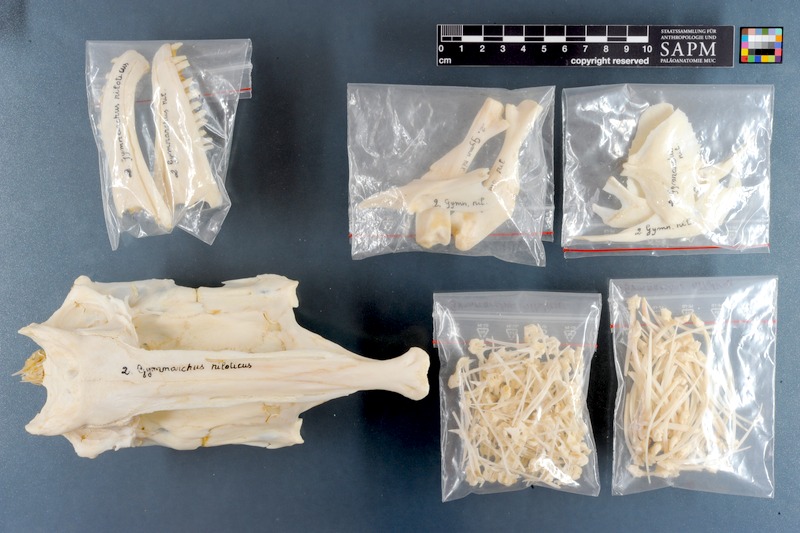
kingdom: Animalia
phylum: Chordata
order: Osteoglossiformes
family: Gymnarchidae
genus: Gymnarchus
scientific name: Gymnarchus niloticus
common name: Aba
